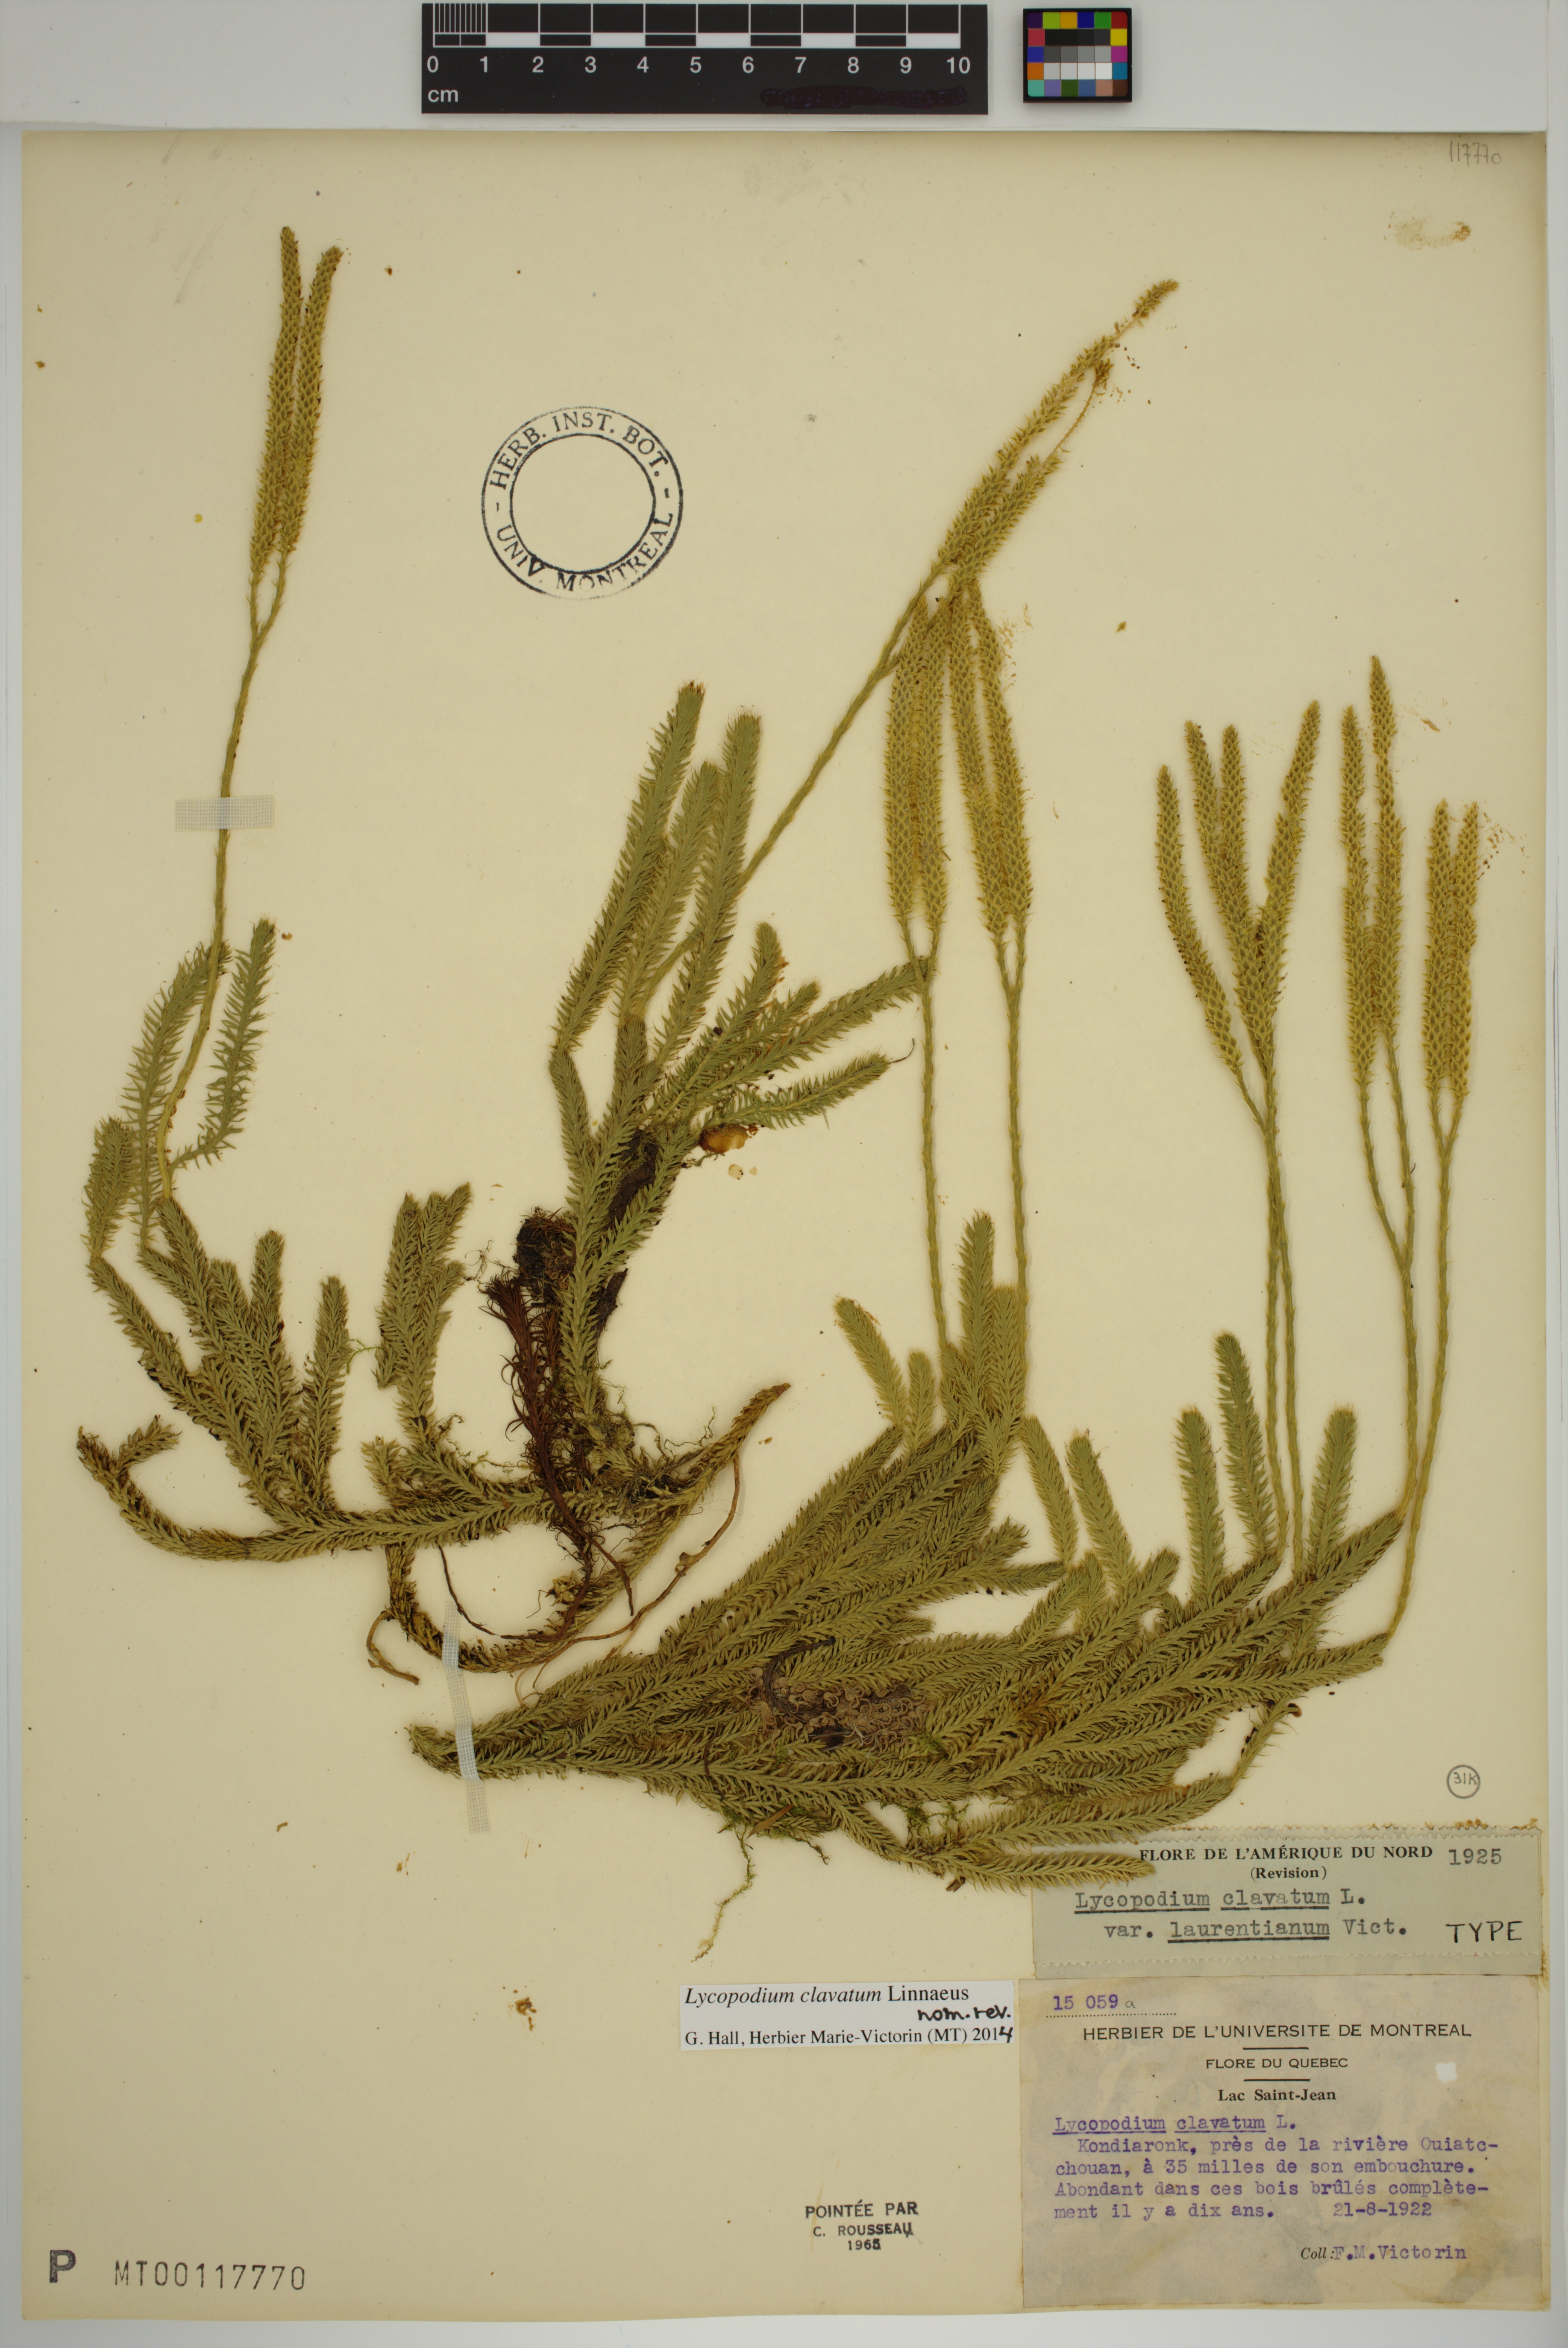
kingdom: Plantae
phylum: Tracheophyta
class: Lycopodiopsida
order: Lycopodiales
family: Lycopodiaceae
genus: Lycopodium
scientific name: Lycopodium clavatum
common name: Stag's-horn clubmoss
